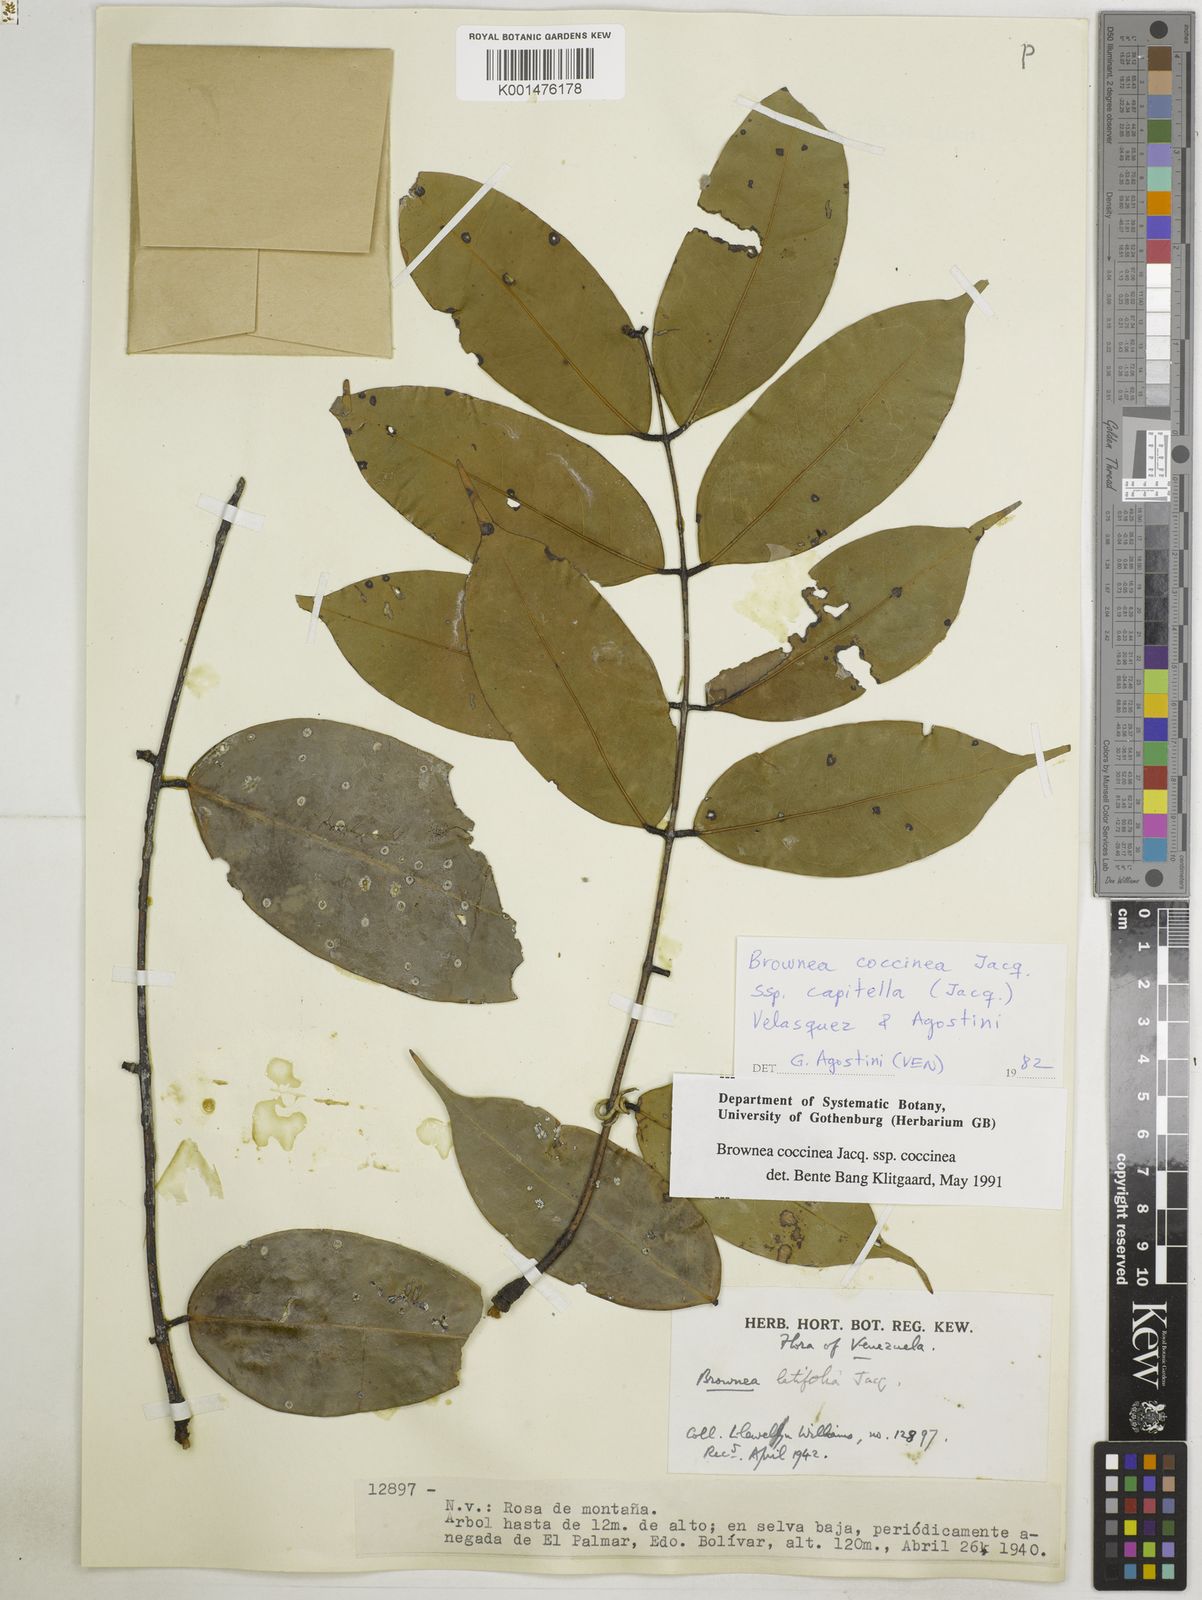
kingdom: Plantae
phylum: Tracheophyta
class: Magnoliopsida
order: Fabales
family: Fabaceae
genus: Brownea
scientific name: Brownea coccinea
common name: Scarlet flame-bean
